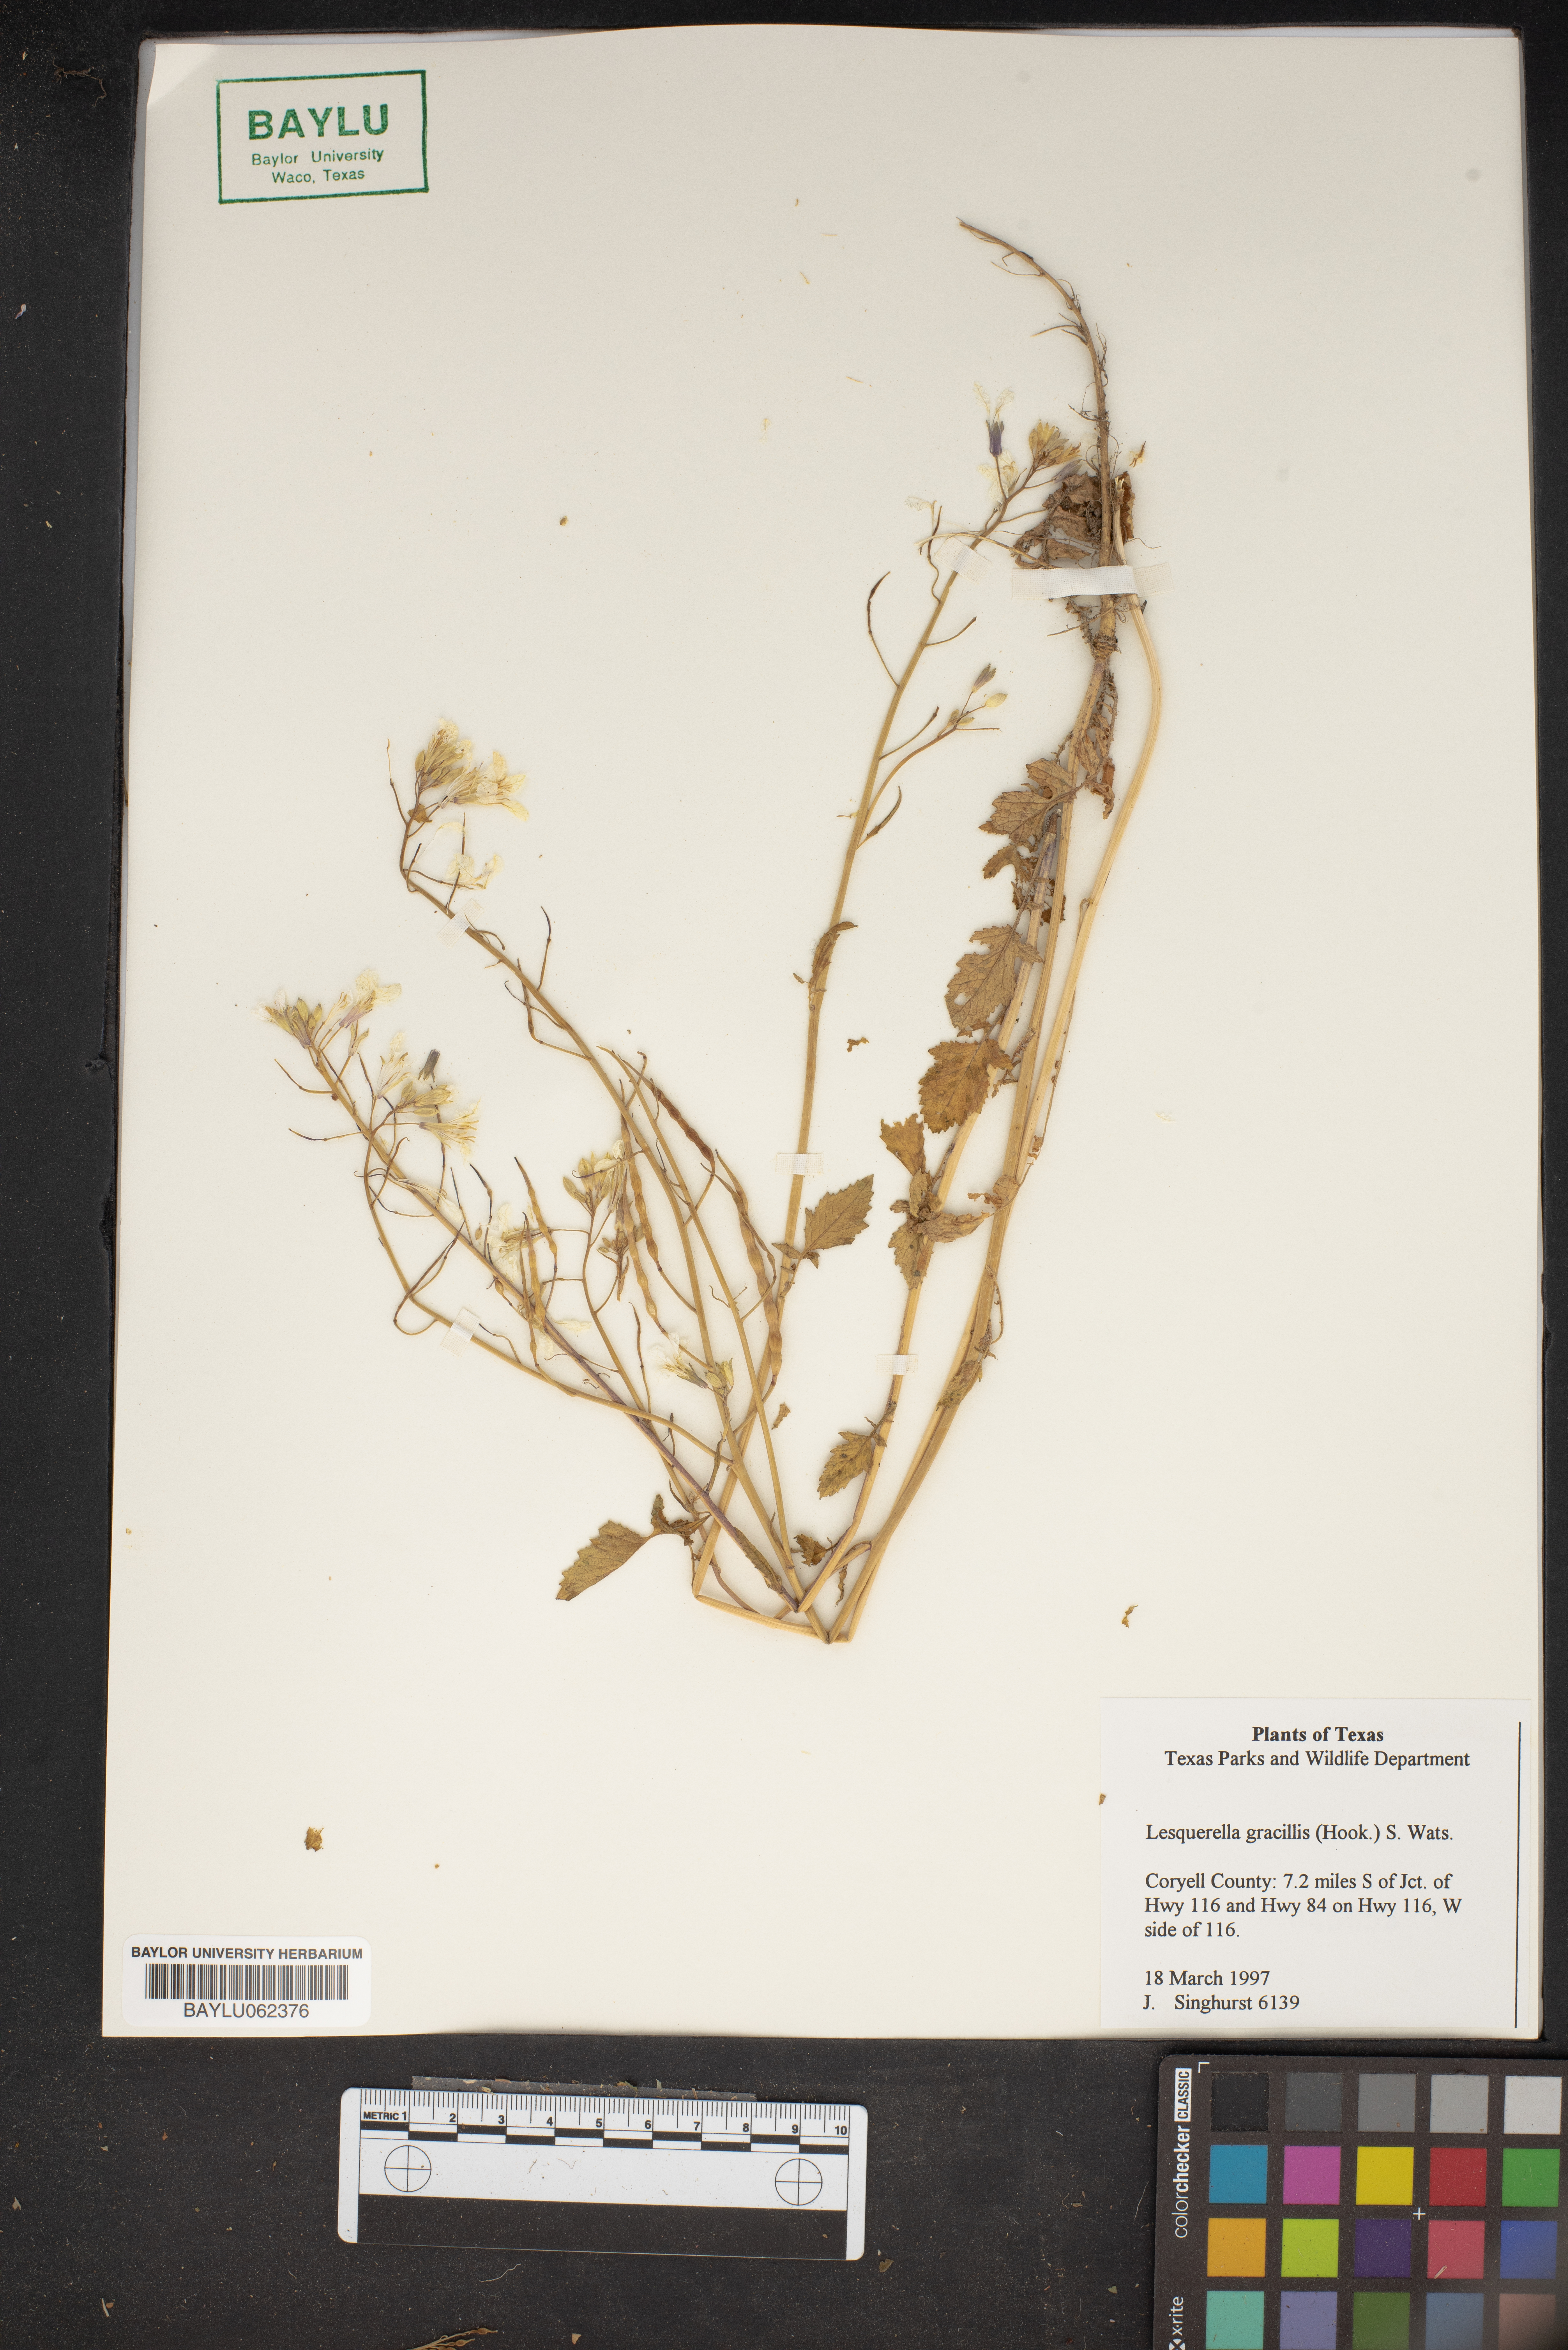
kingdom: Plantae
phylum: Tracheophyta
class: Magnoliopsida
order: Brassicales
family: Brassicaceae
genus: Physaria
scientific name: Physaria gracilis
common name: Spreading bladderpod
